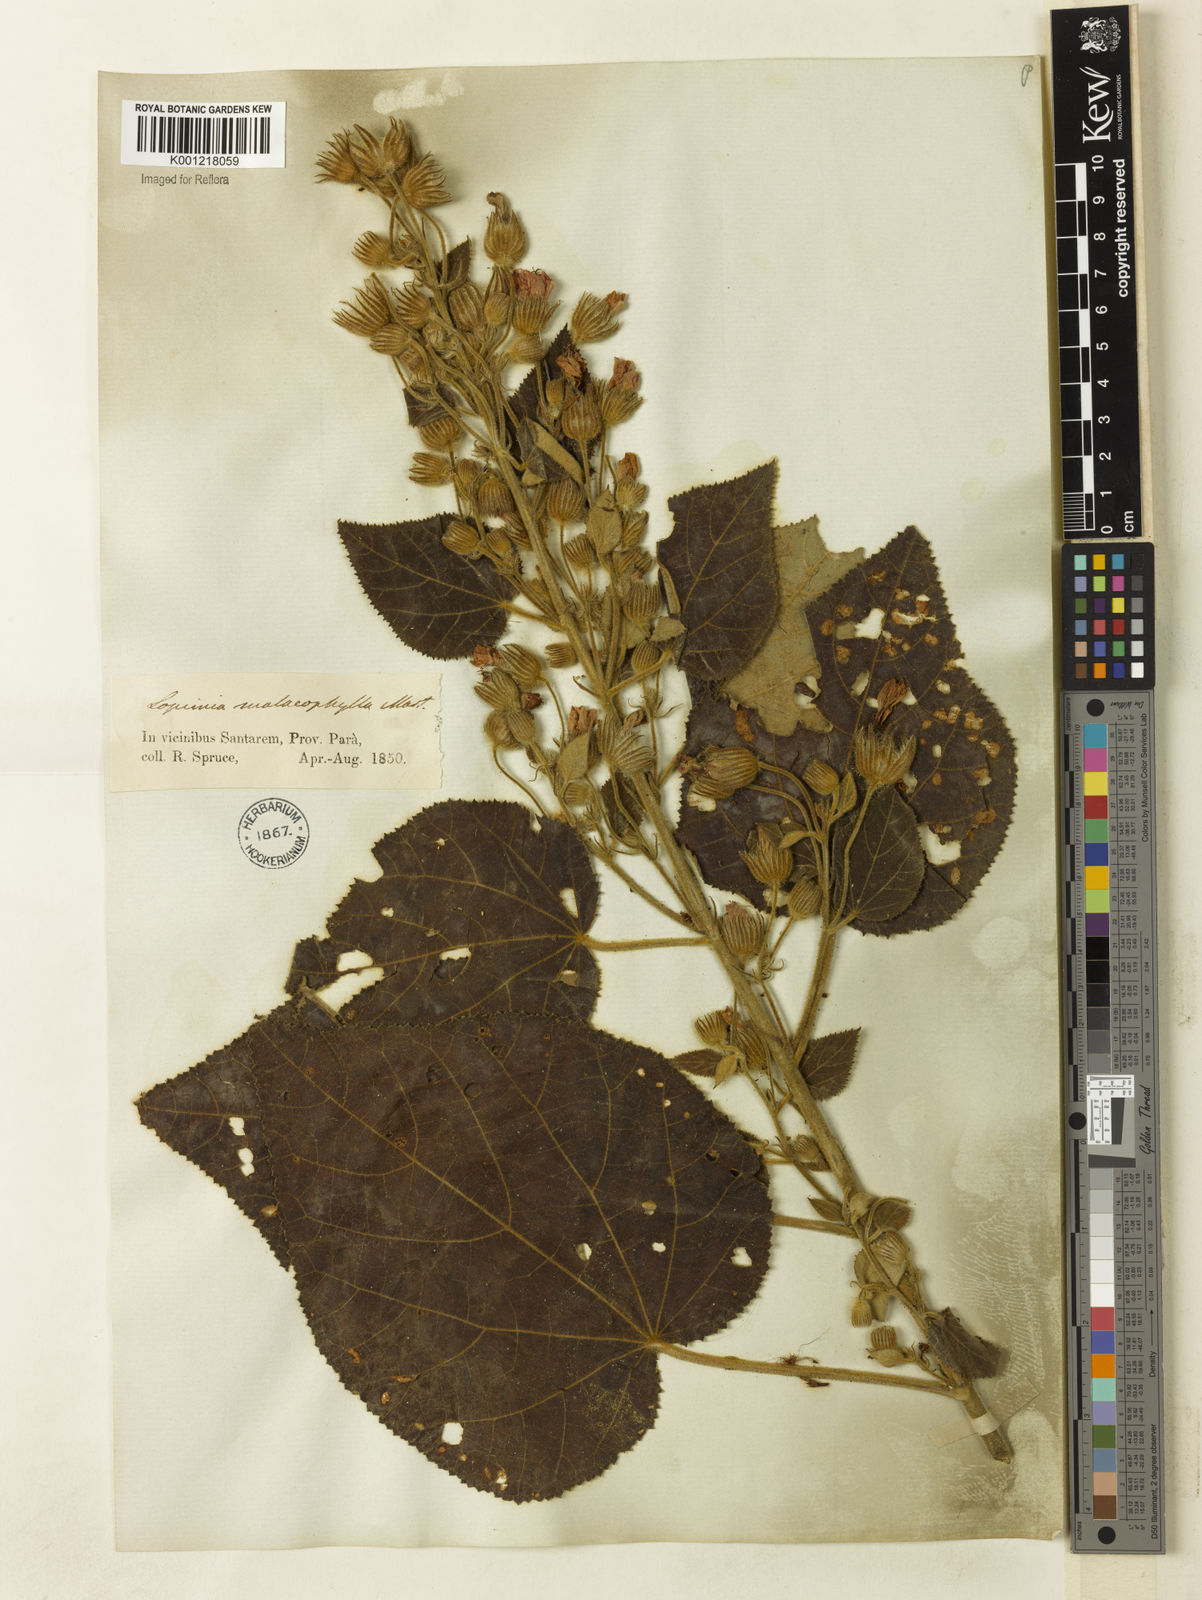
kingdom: Plantae
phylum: Tracheophyta
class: Magnoliopsida
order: Malvales
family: Malvaceae
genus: Pavonia
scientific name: Pavonia malacophylla
